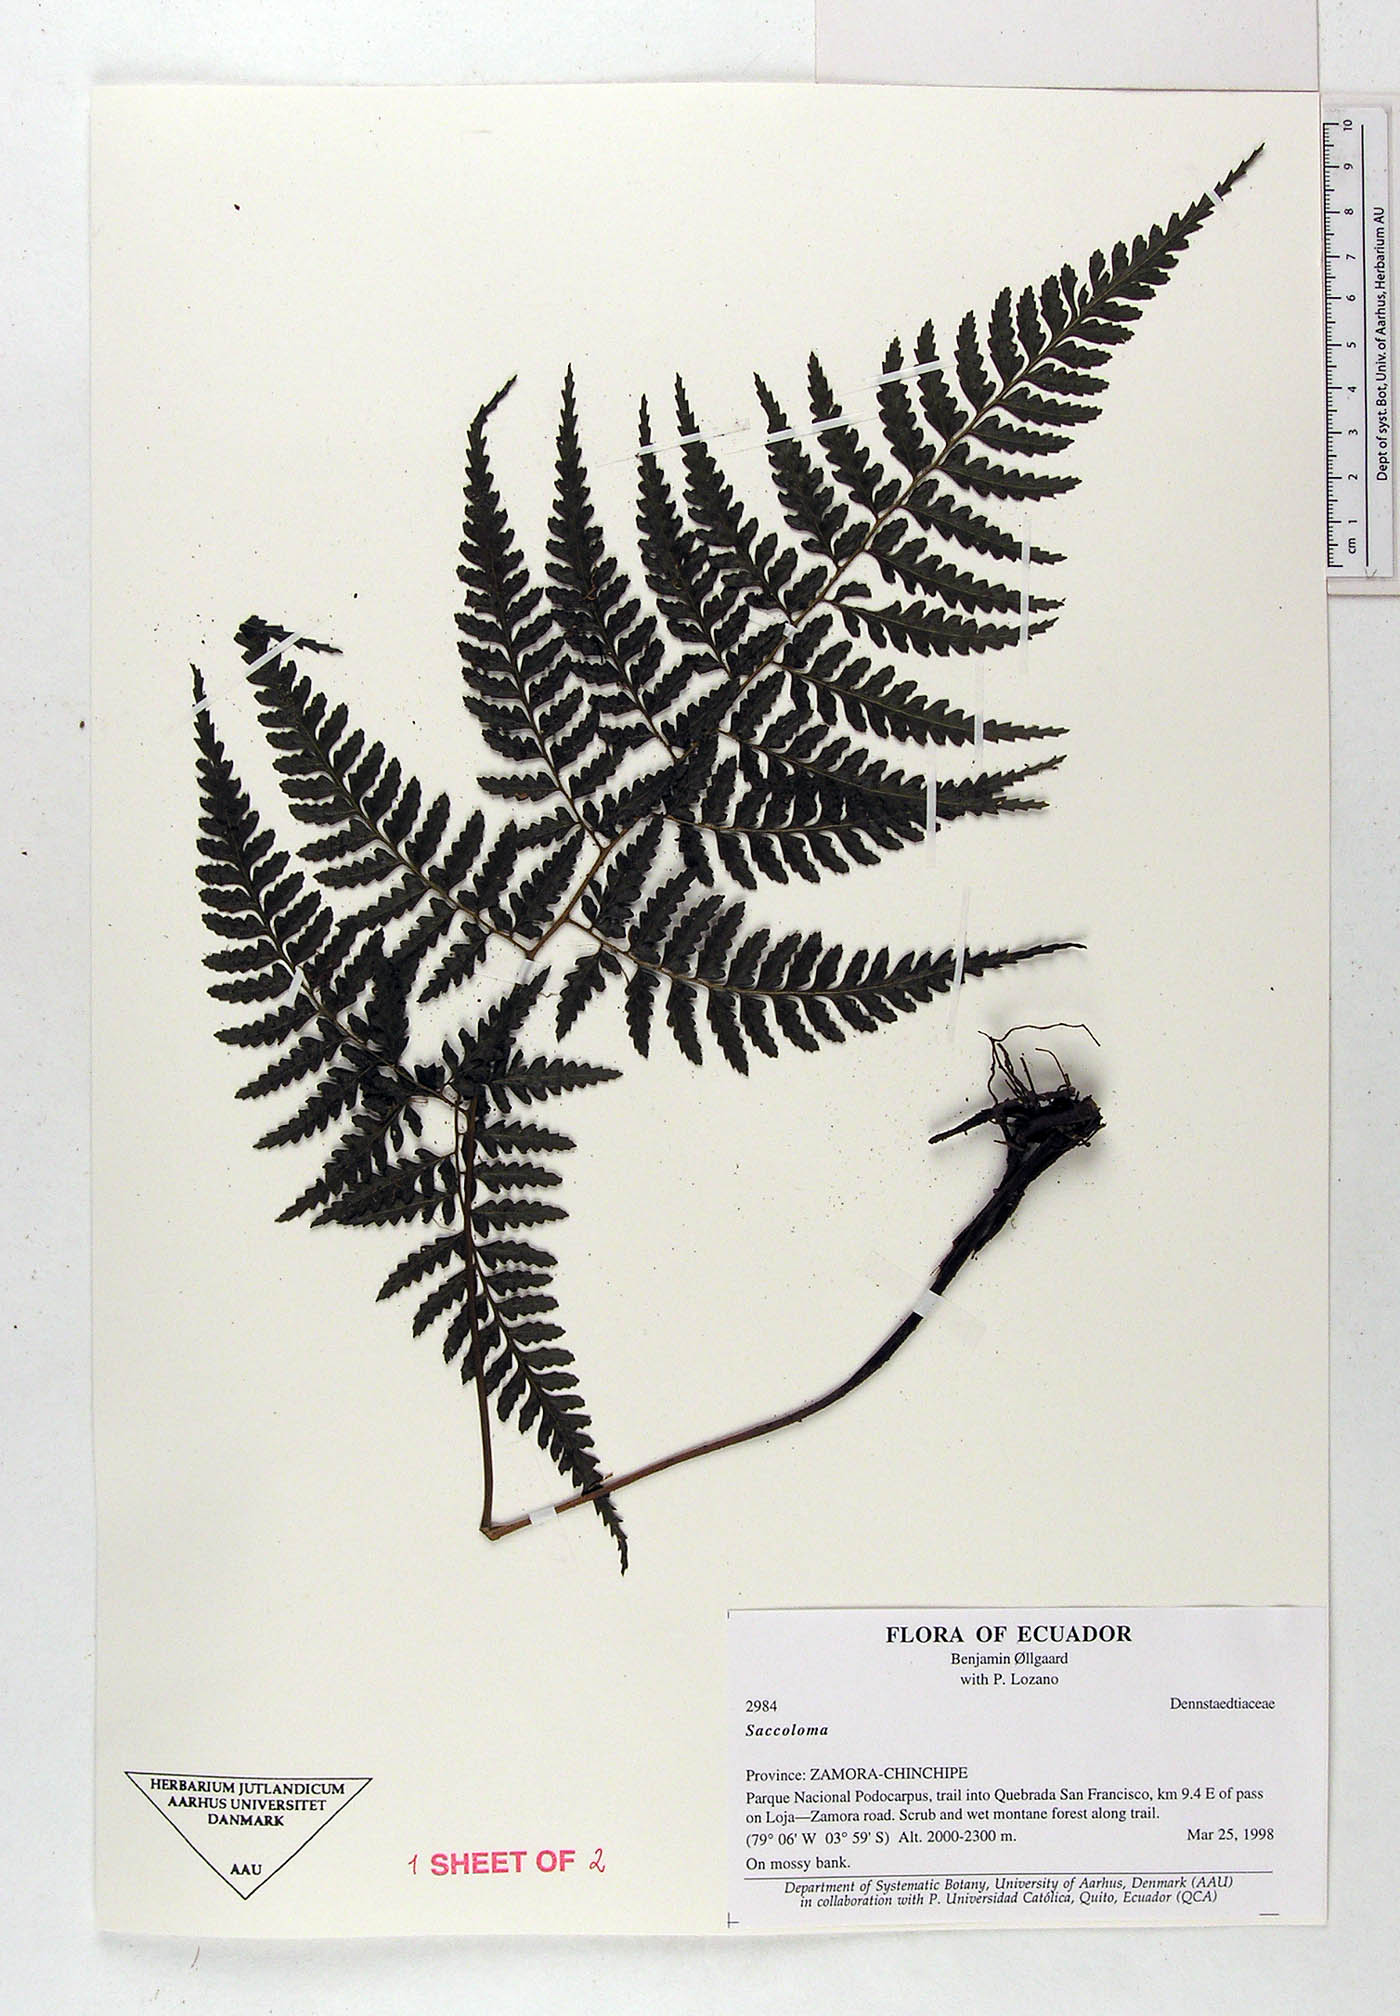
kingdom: Plantae
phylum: Tracheophyta
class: Polypodiopsida
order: Polypodiales
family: Saccolomataceae
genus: Saccoloma
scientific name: Saccoloma inaequale
